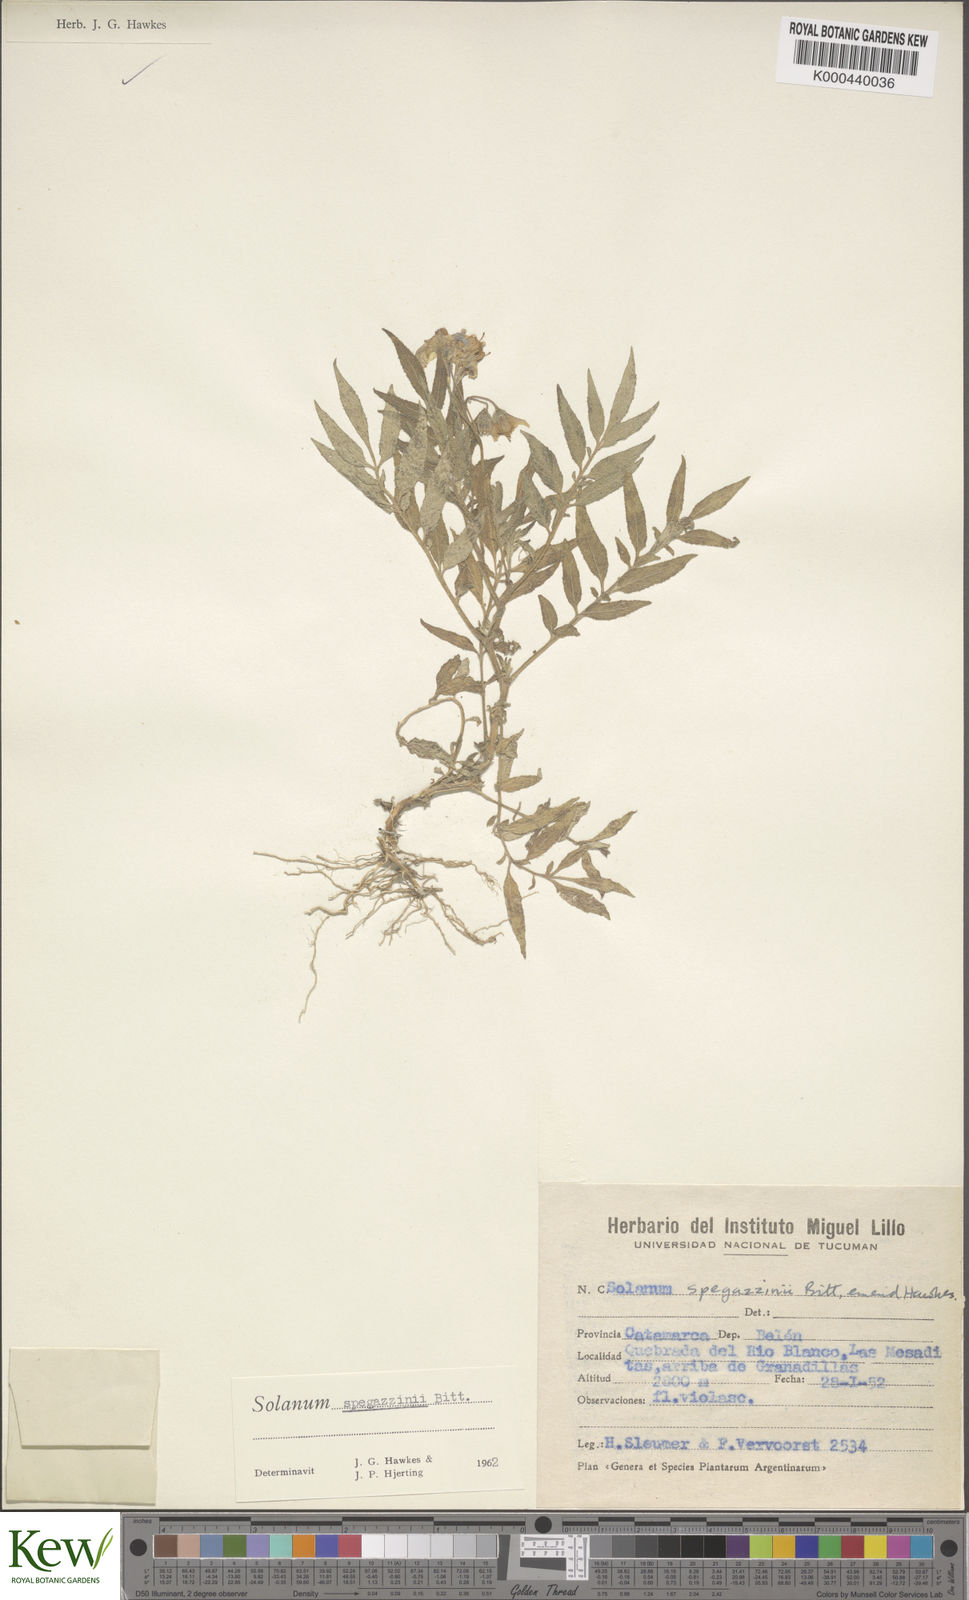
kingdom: Plantae
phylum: Tracheophyta
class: Magnoliopsida
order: Solanales
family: Solanaceae
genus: Solanum
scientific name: Solanum brevicaule
